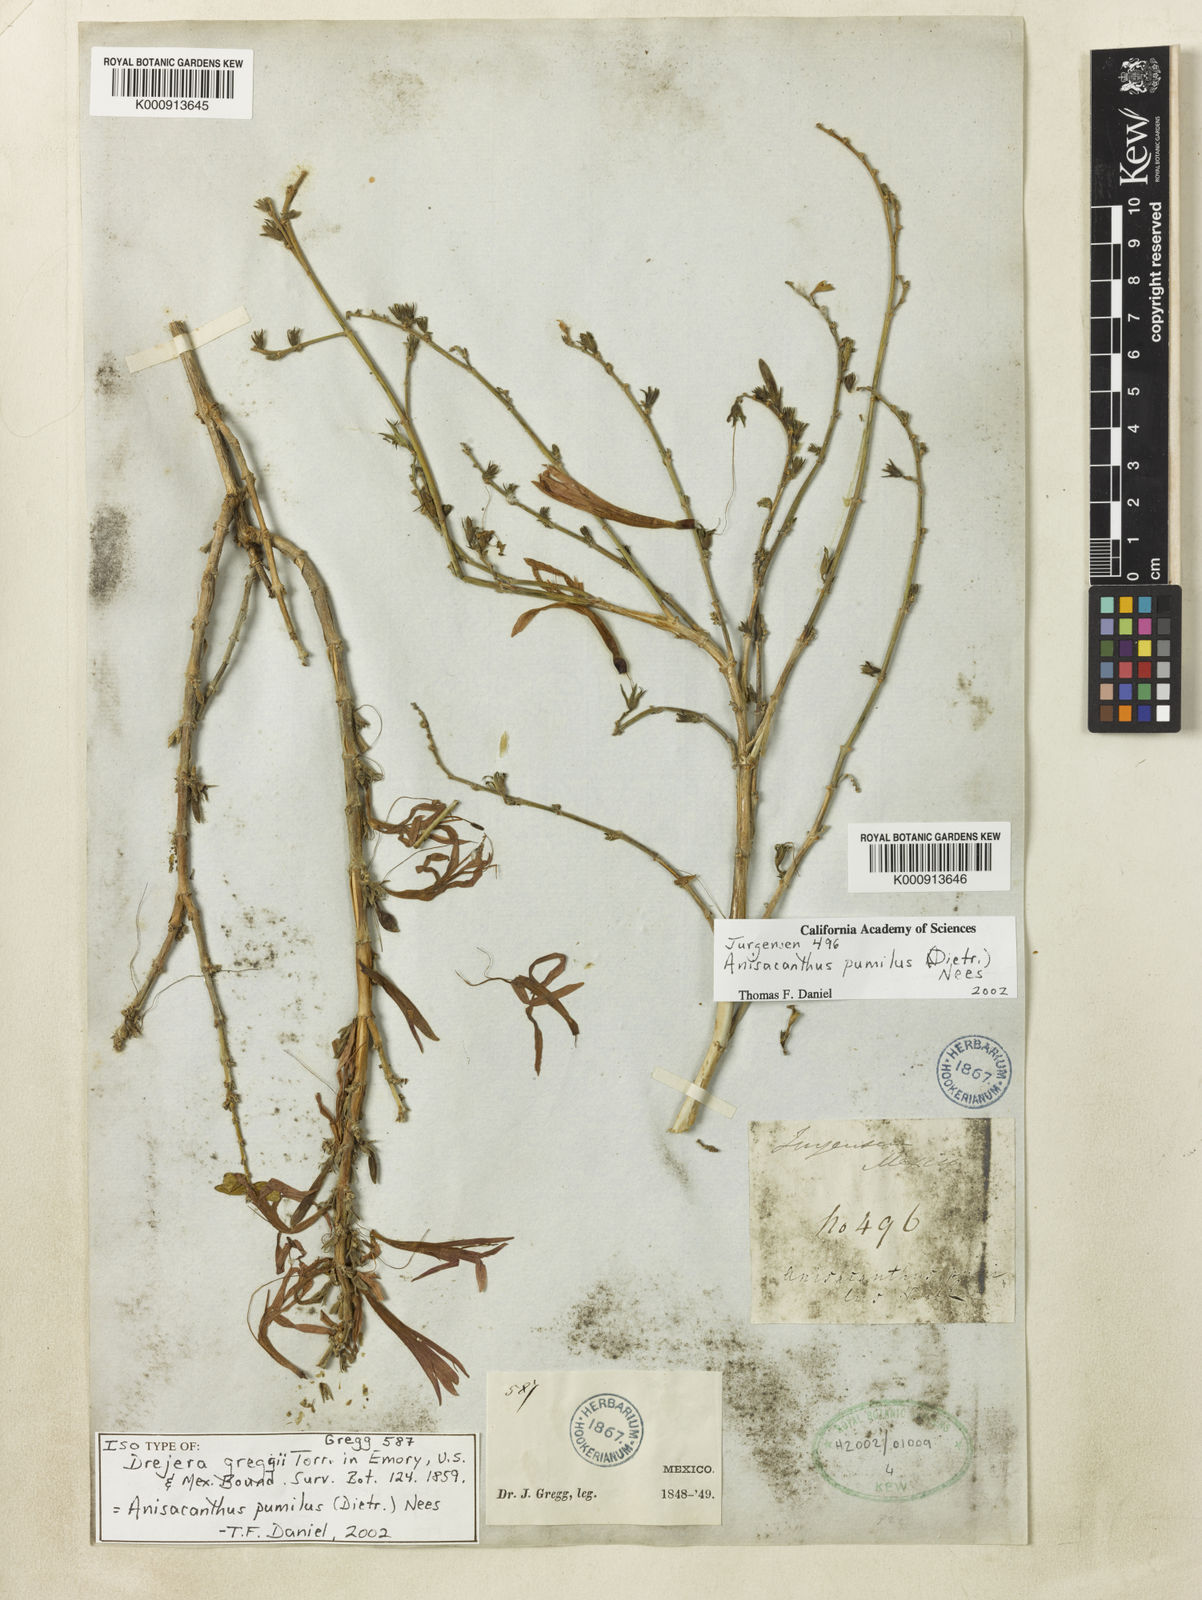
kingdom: Plantae
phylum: Tracheophyta
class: Magnoliopsida
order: Lamiales
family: Acanthaceae
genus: Anisacanthus
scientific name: Anisacanthus pumilus
